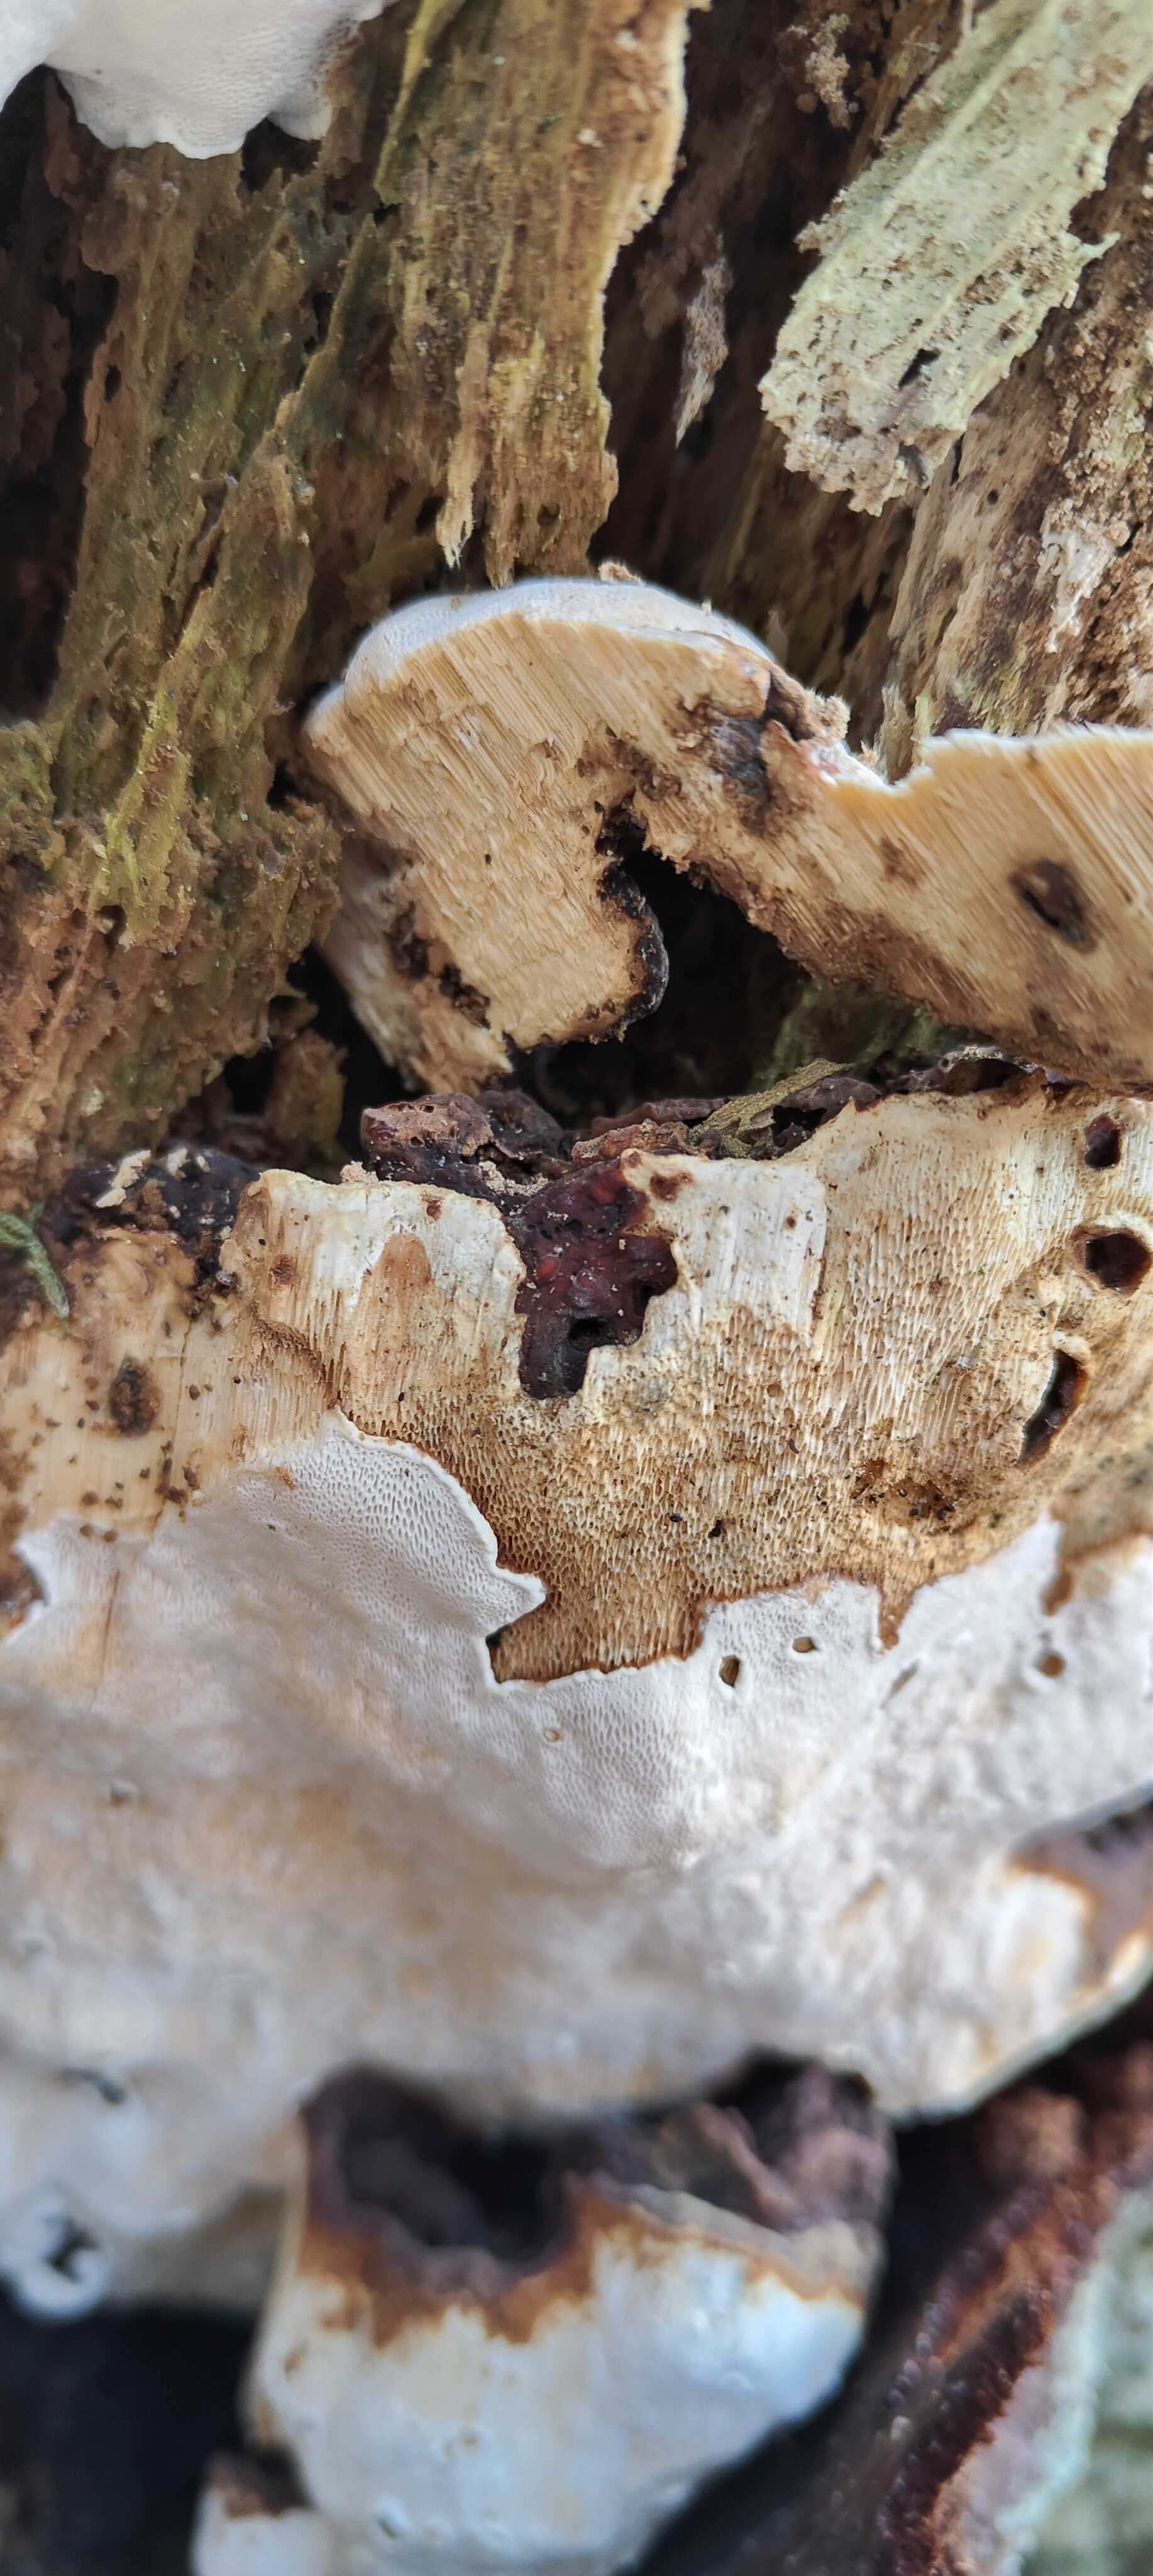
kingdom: Fungi
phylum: Basidiomycota
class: Agaricomycetes
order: Russulales
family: Bondarzewiaceae
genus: Heterobasidion
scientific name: Heterobasidion
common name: rodfordærver
